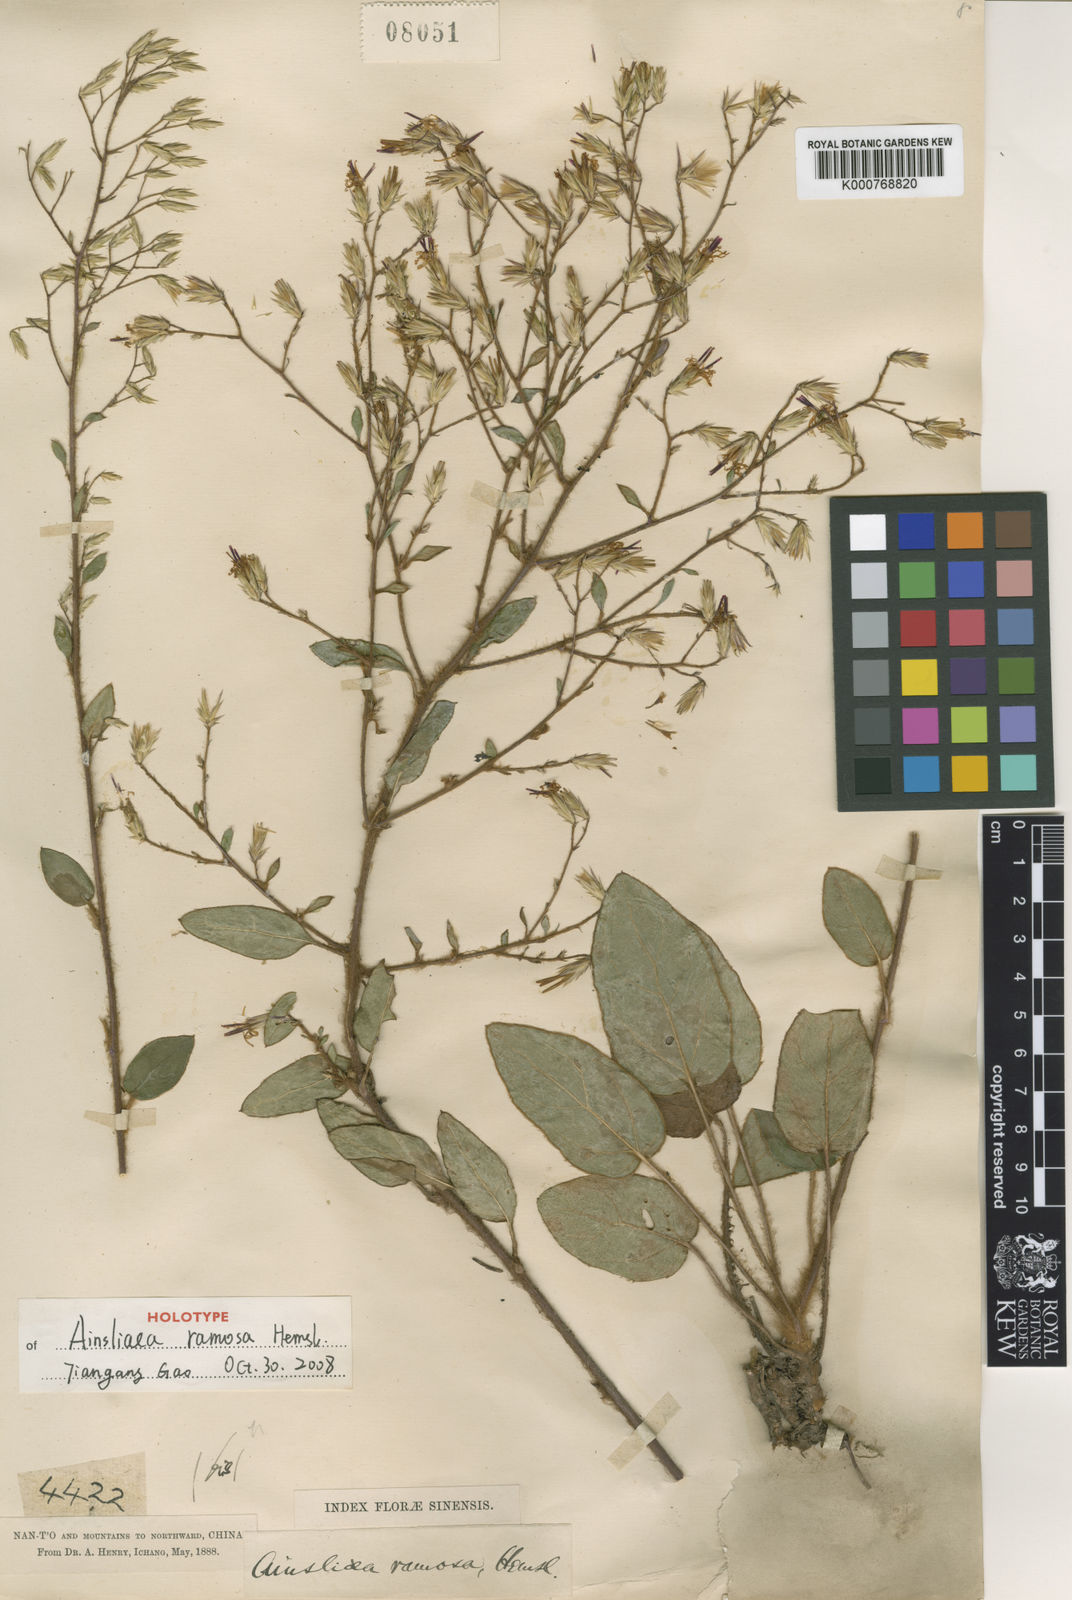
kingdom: Plantae
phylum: Tracheophyta
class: Magnoliopsida
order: Asterales
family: Asteraceae
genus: Ainsliaea
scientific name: Ainsliaea ramosa
